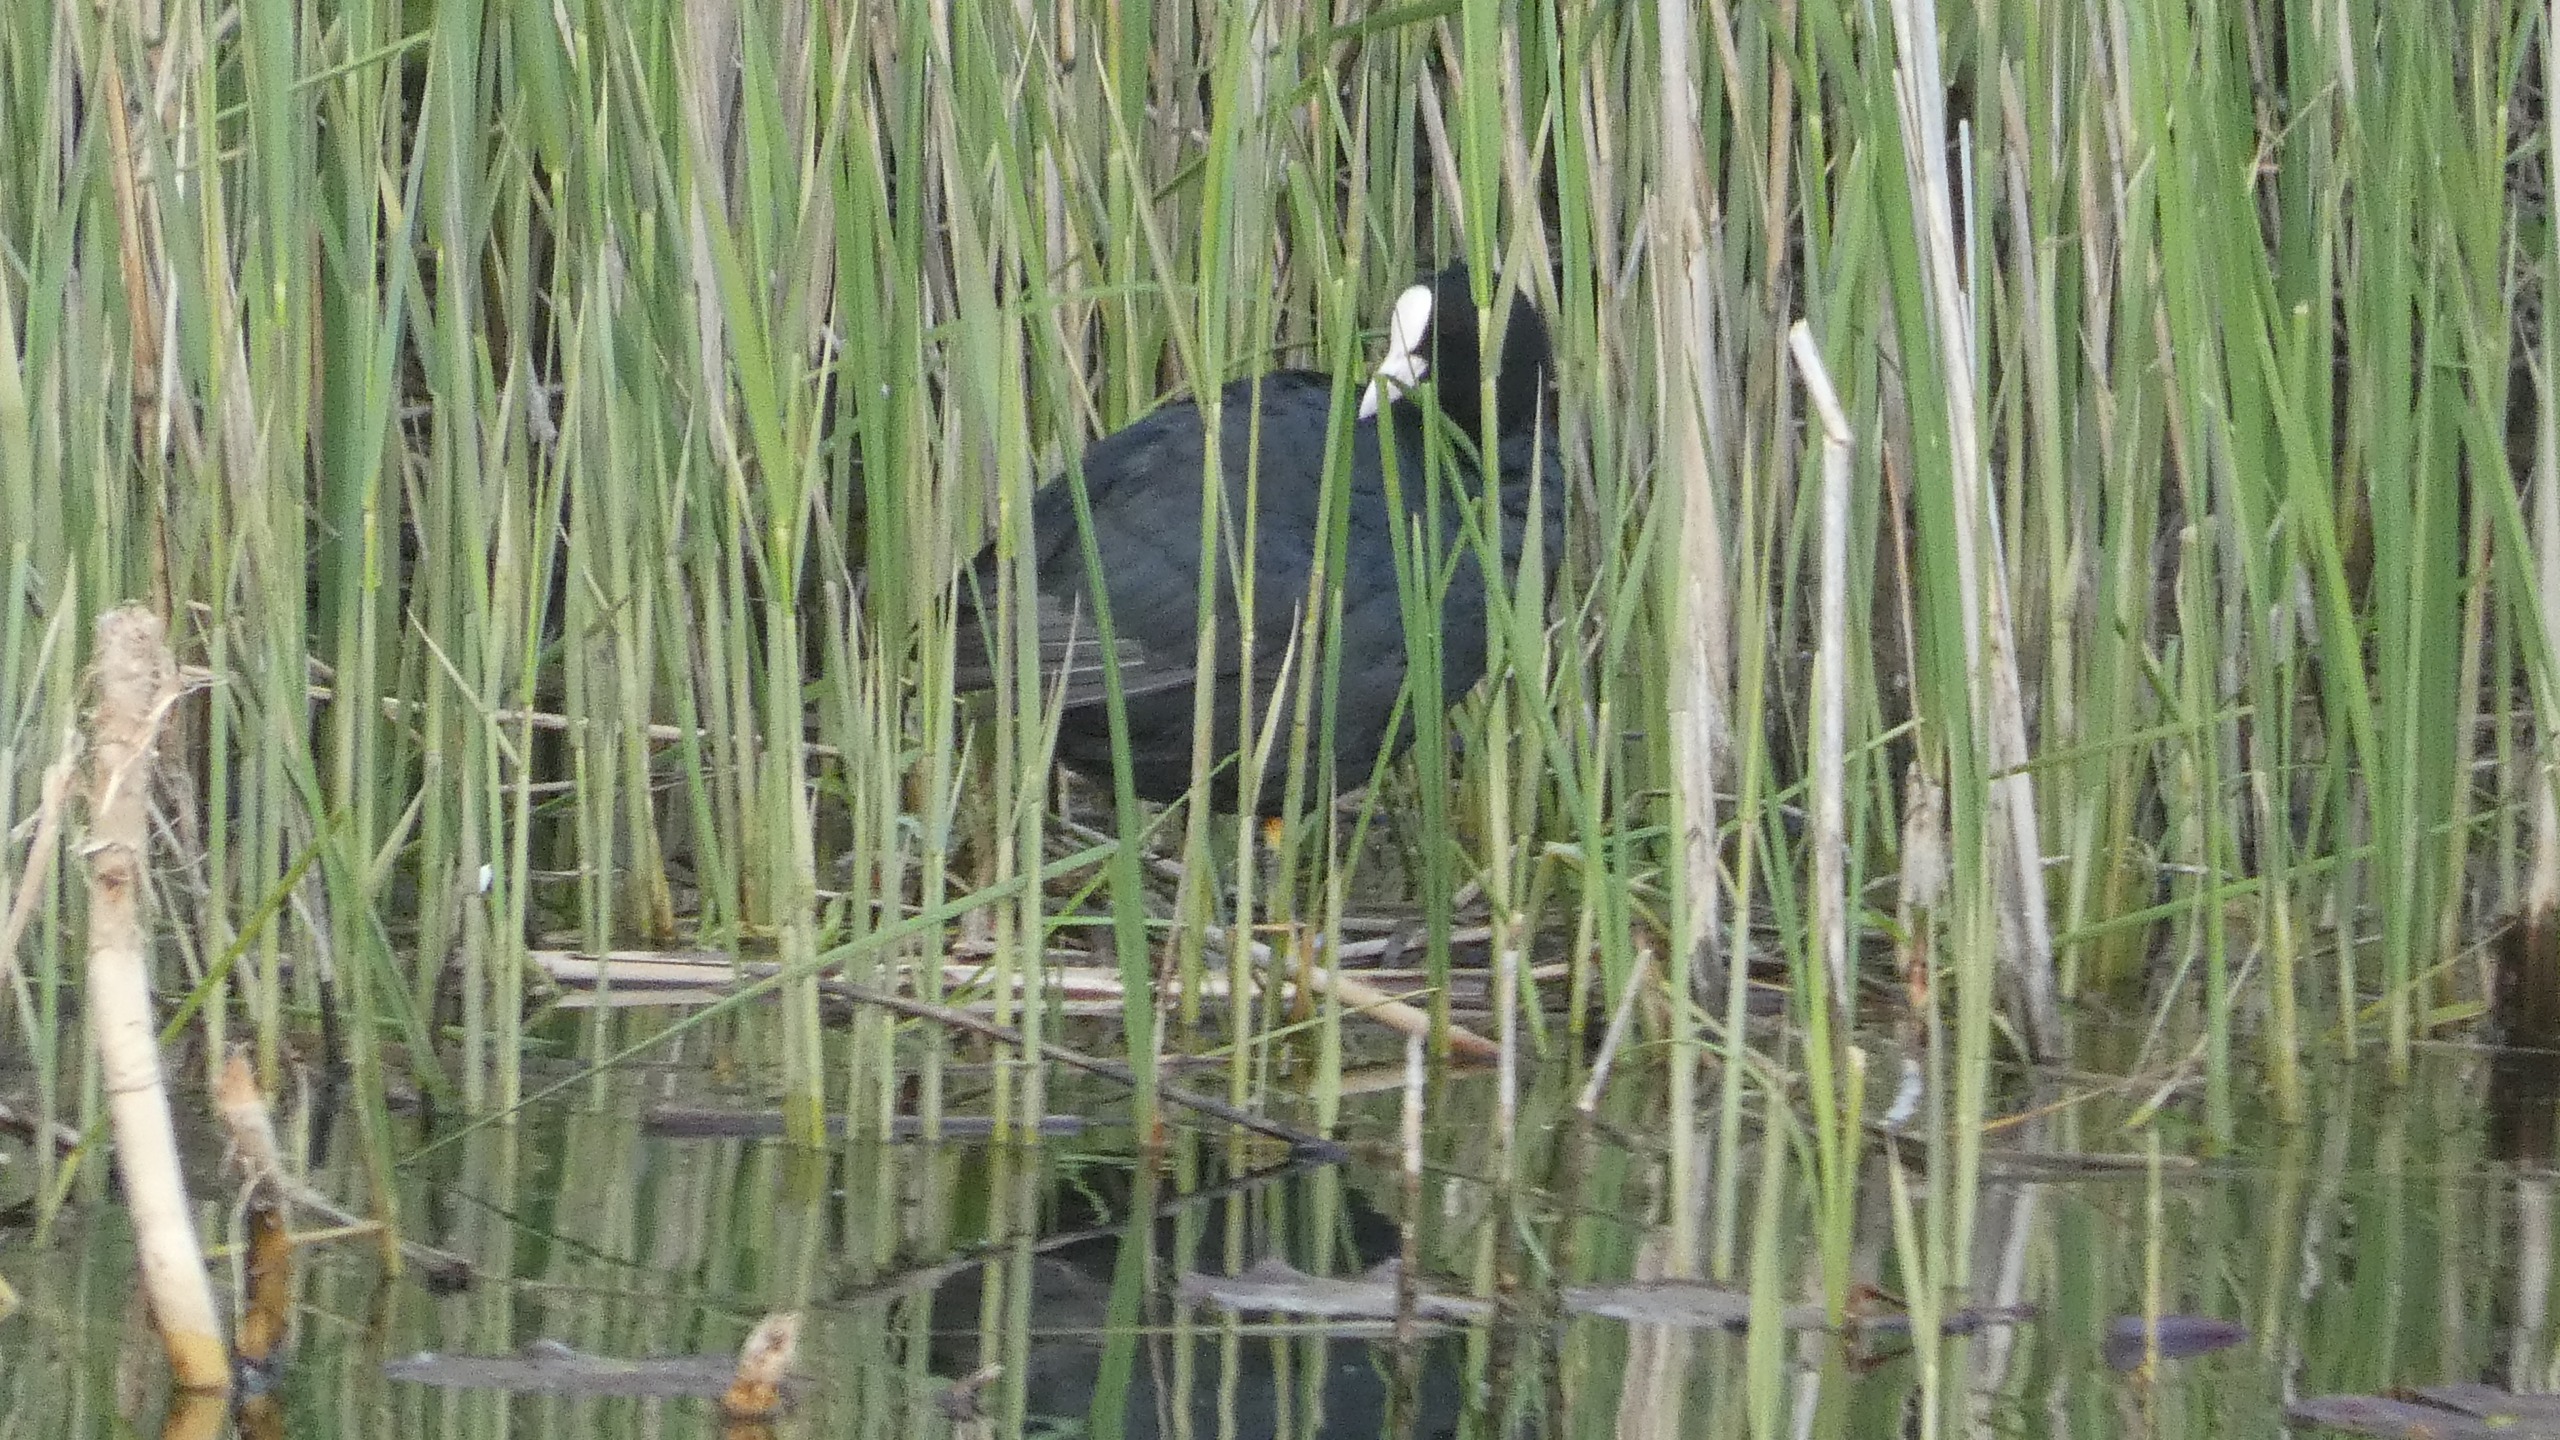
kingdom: Animalia
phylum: Chordata
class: Aves
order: Gruiformes
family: Rallidae
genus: Fulica
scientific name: Fulica atra
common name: Blishøne
